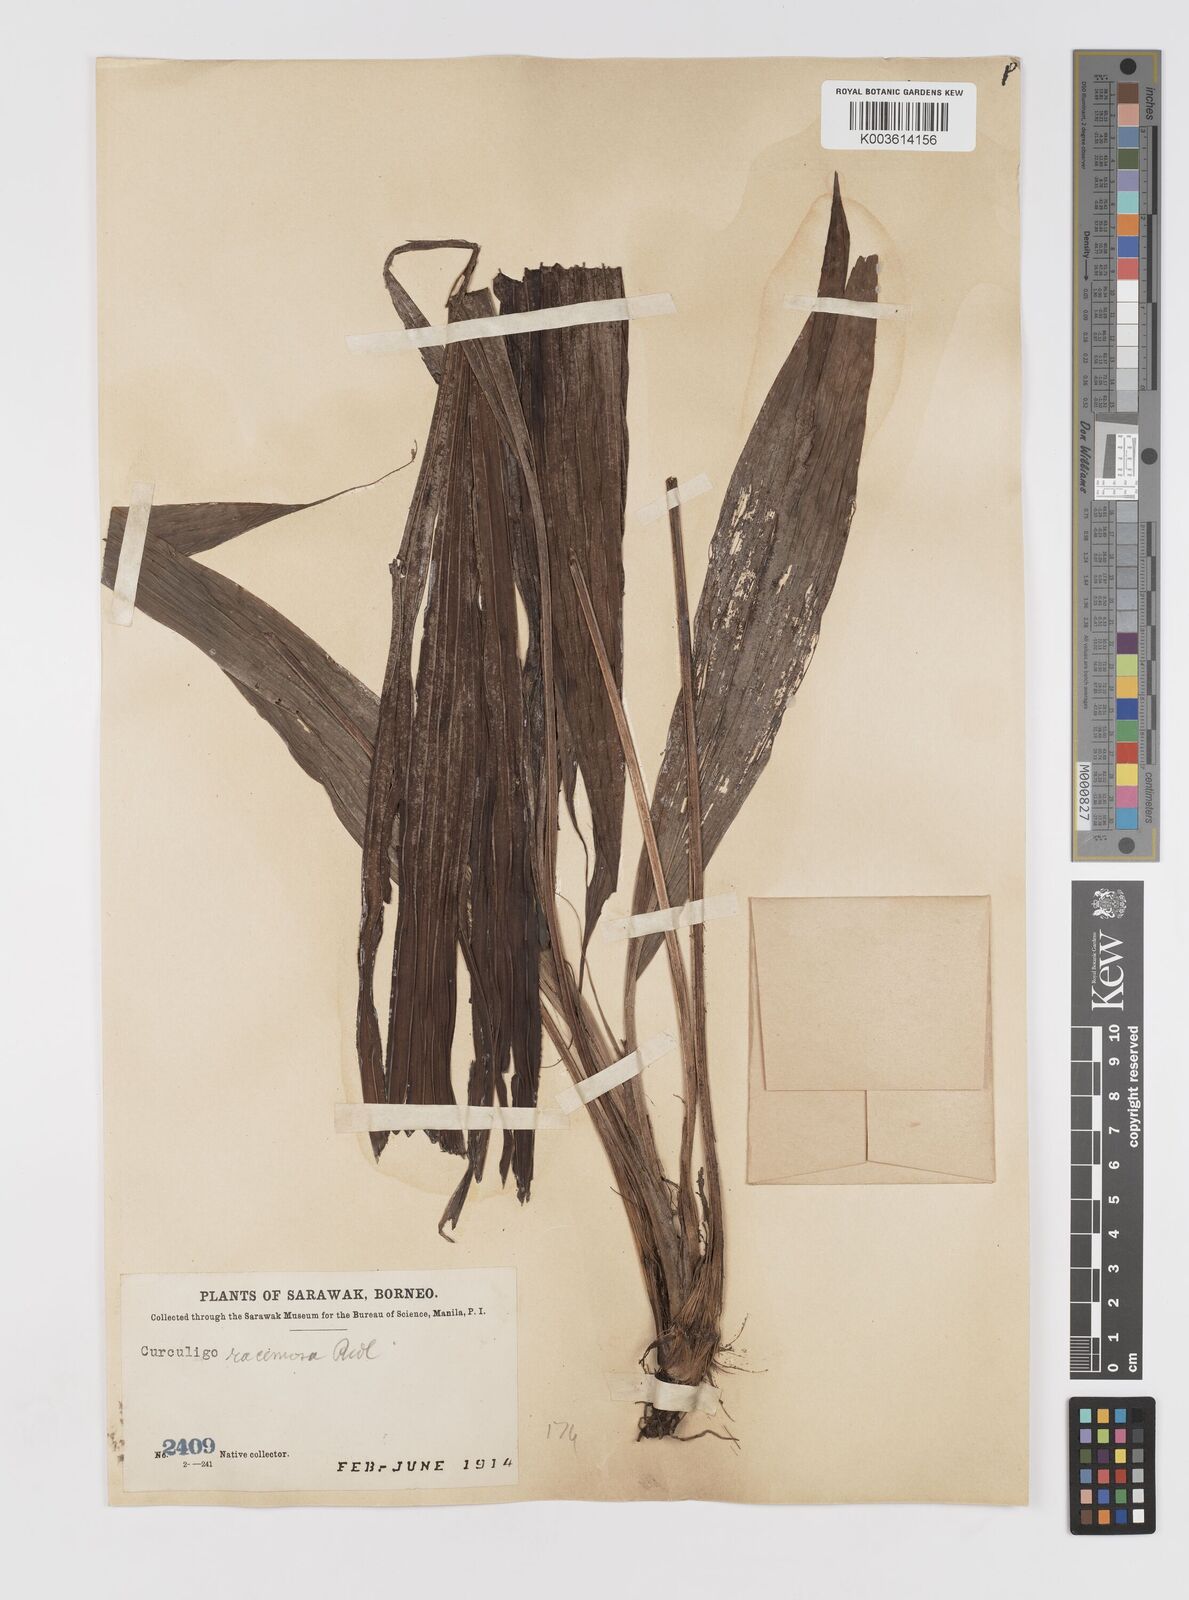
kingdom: Plantae
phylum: Tracheophyta
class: Liliopsida
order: Asparagales
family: Hypoxidaceae
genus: Curculigo
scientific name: Curculigo racemosa
